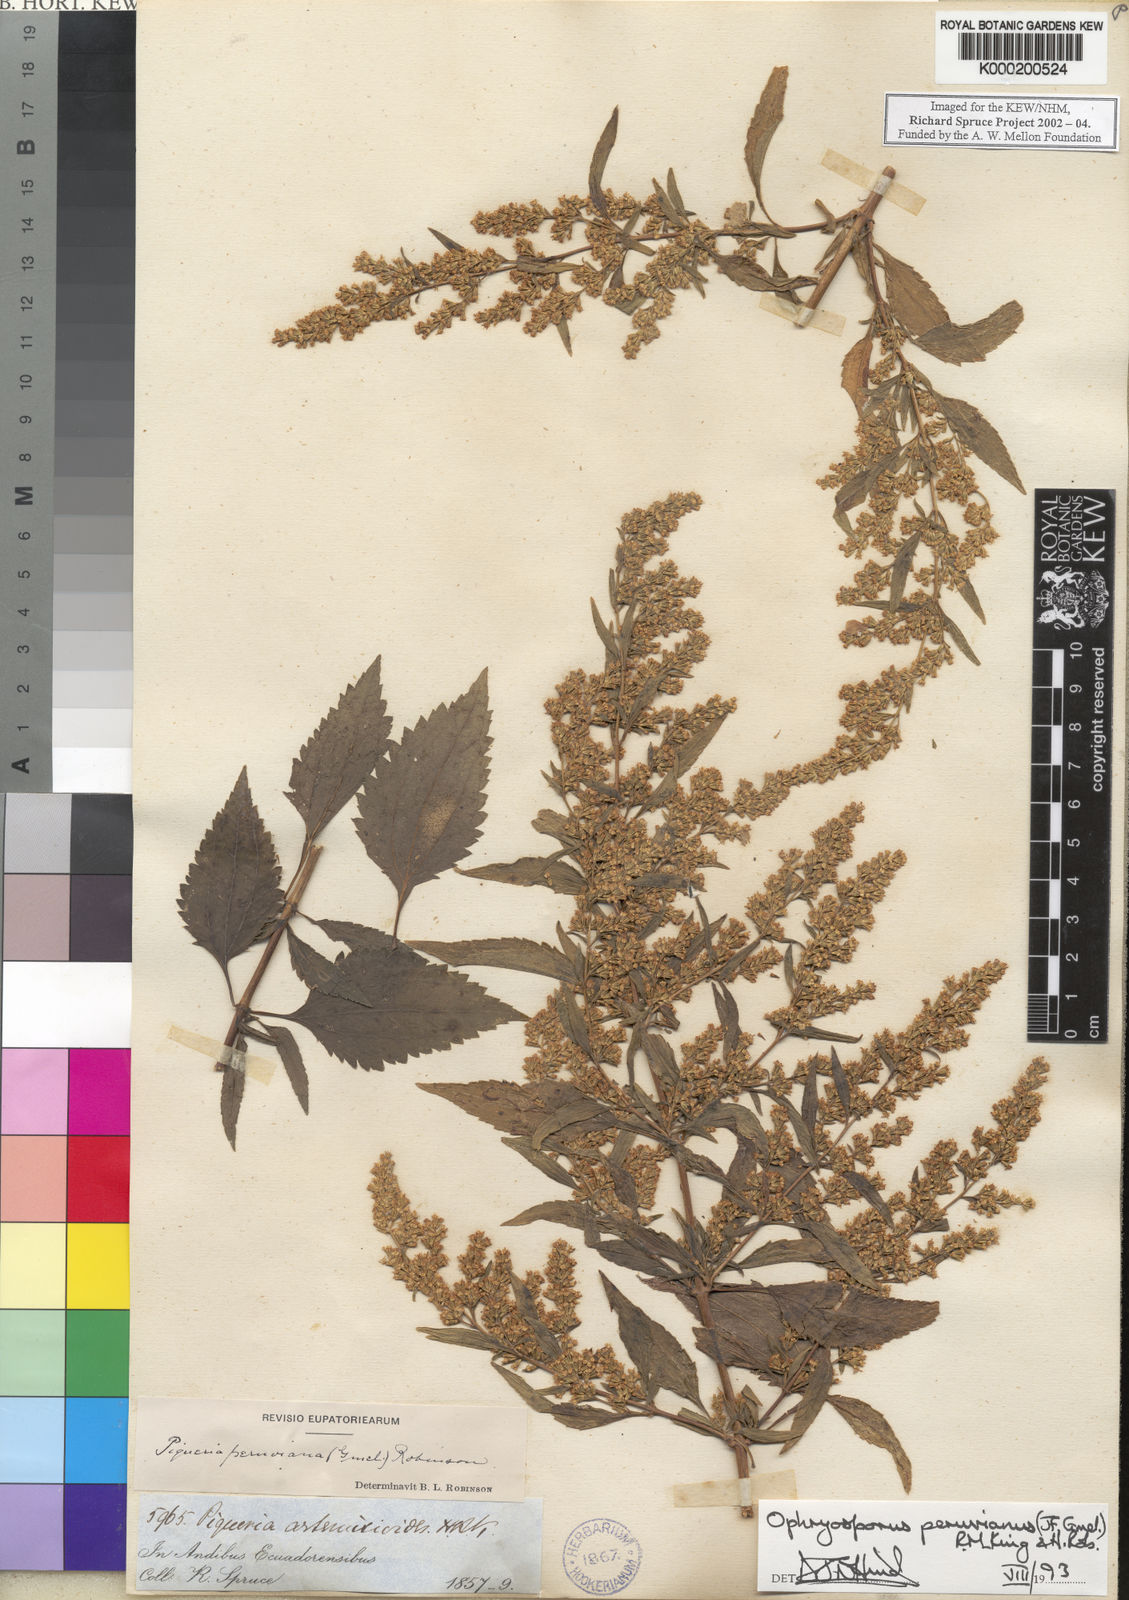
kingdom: Plantae
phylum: Tracheophyta
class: Magnoliopsida
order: Asterales
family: Asteraceae
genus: Ophryosporus
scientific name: Ophryosporus peruvianus
